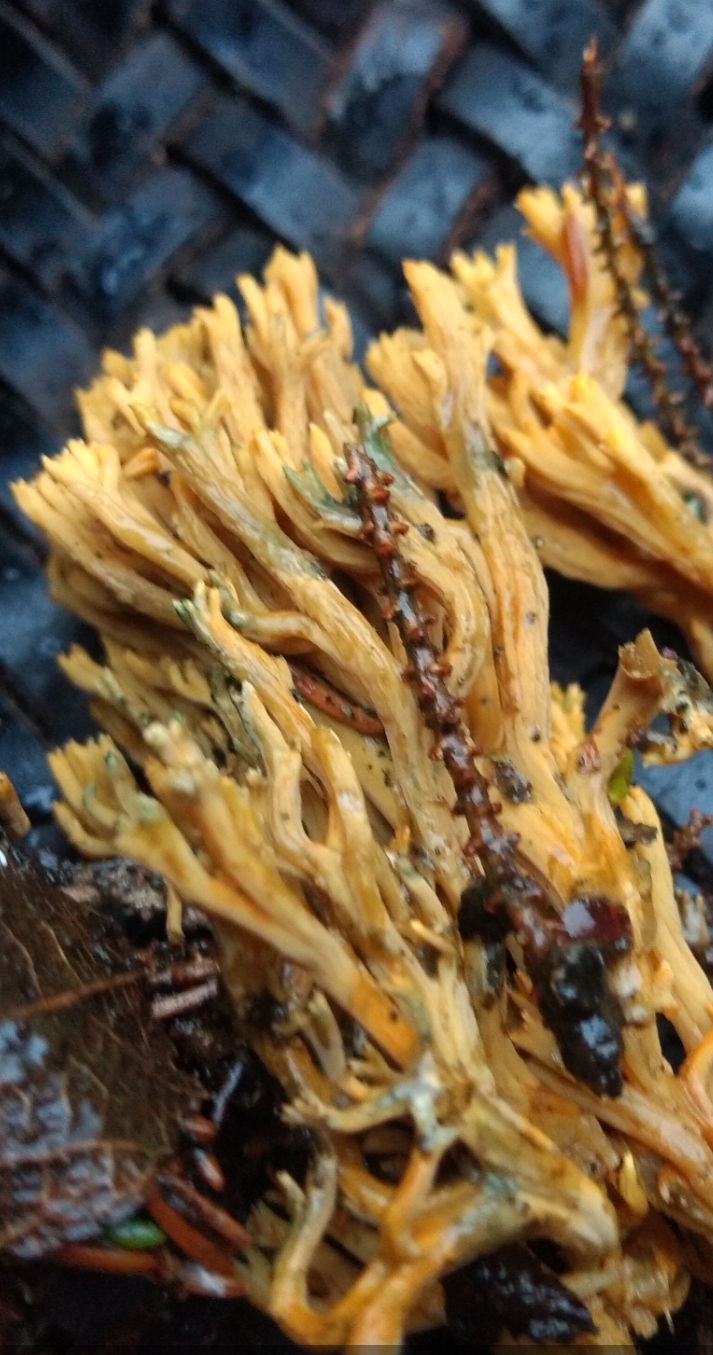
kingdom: Fungi
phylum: Basidiomycota
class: Agaricomycetes
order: Gomphales
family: Gomphaceae
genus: Phaeoclavulina
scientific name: Phaeoclavulina abietina
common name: gulgrøn koralsvamp
